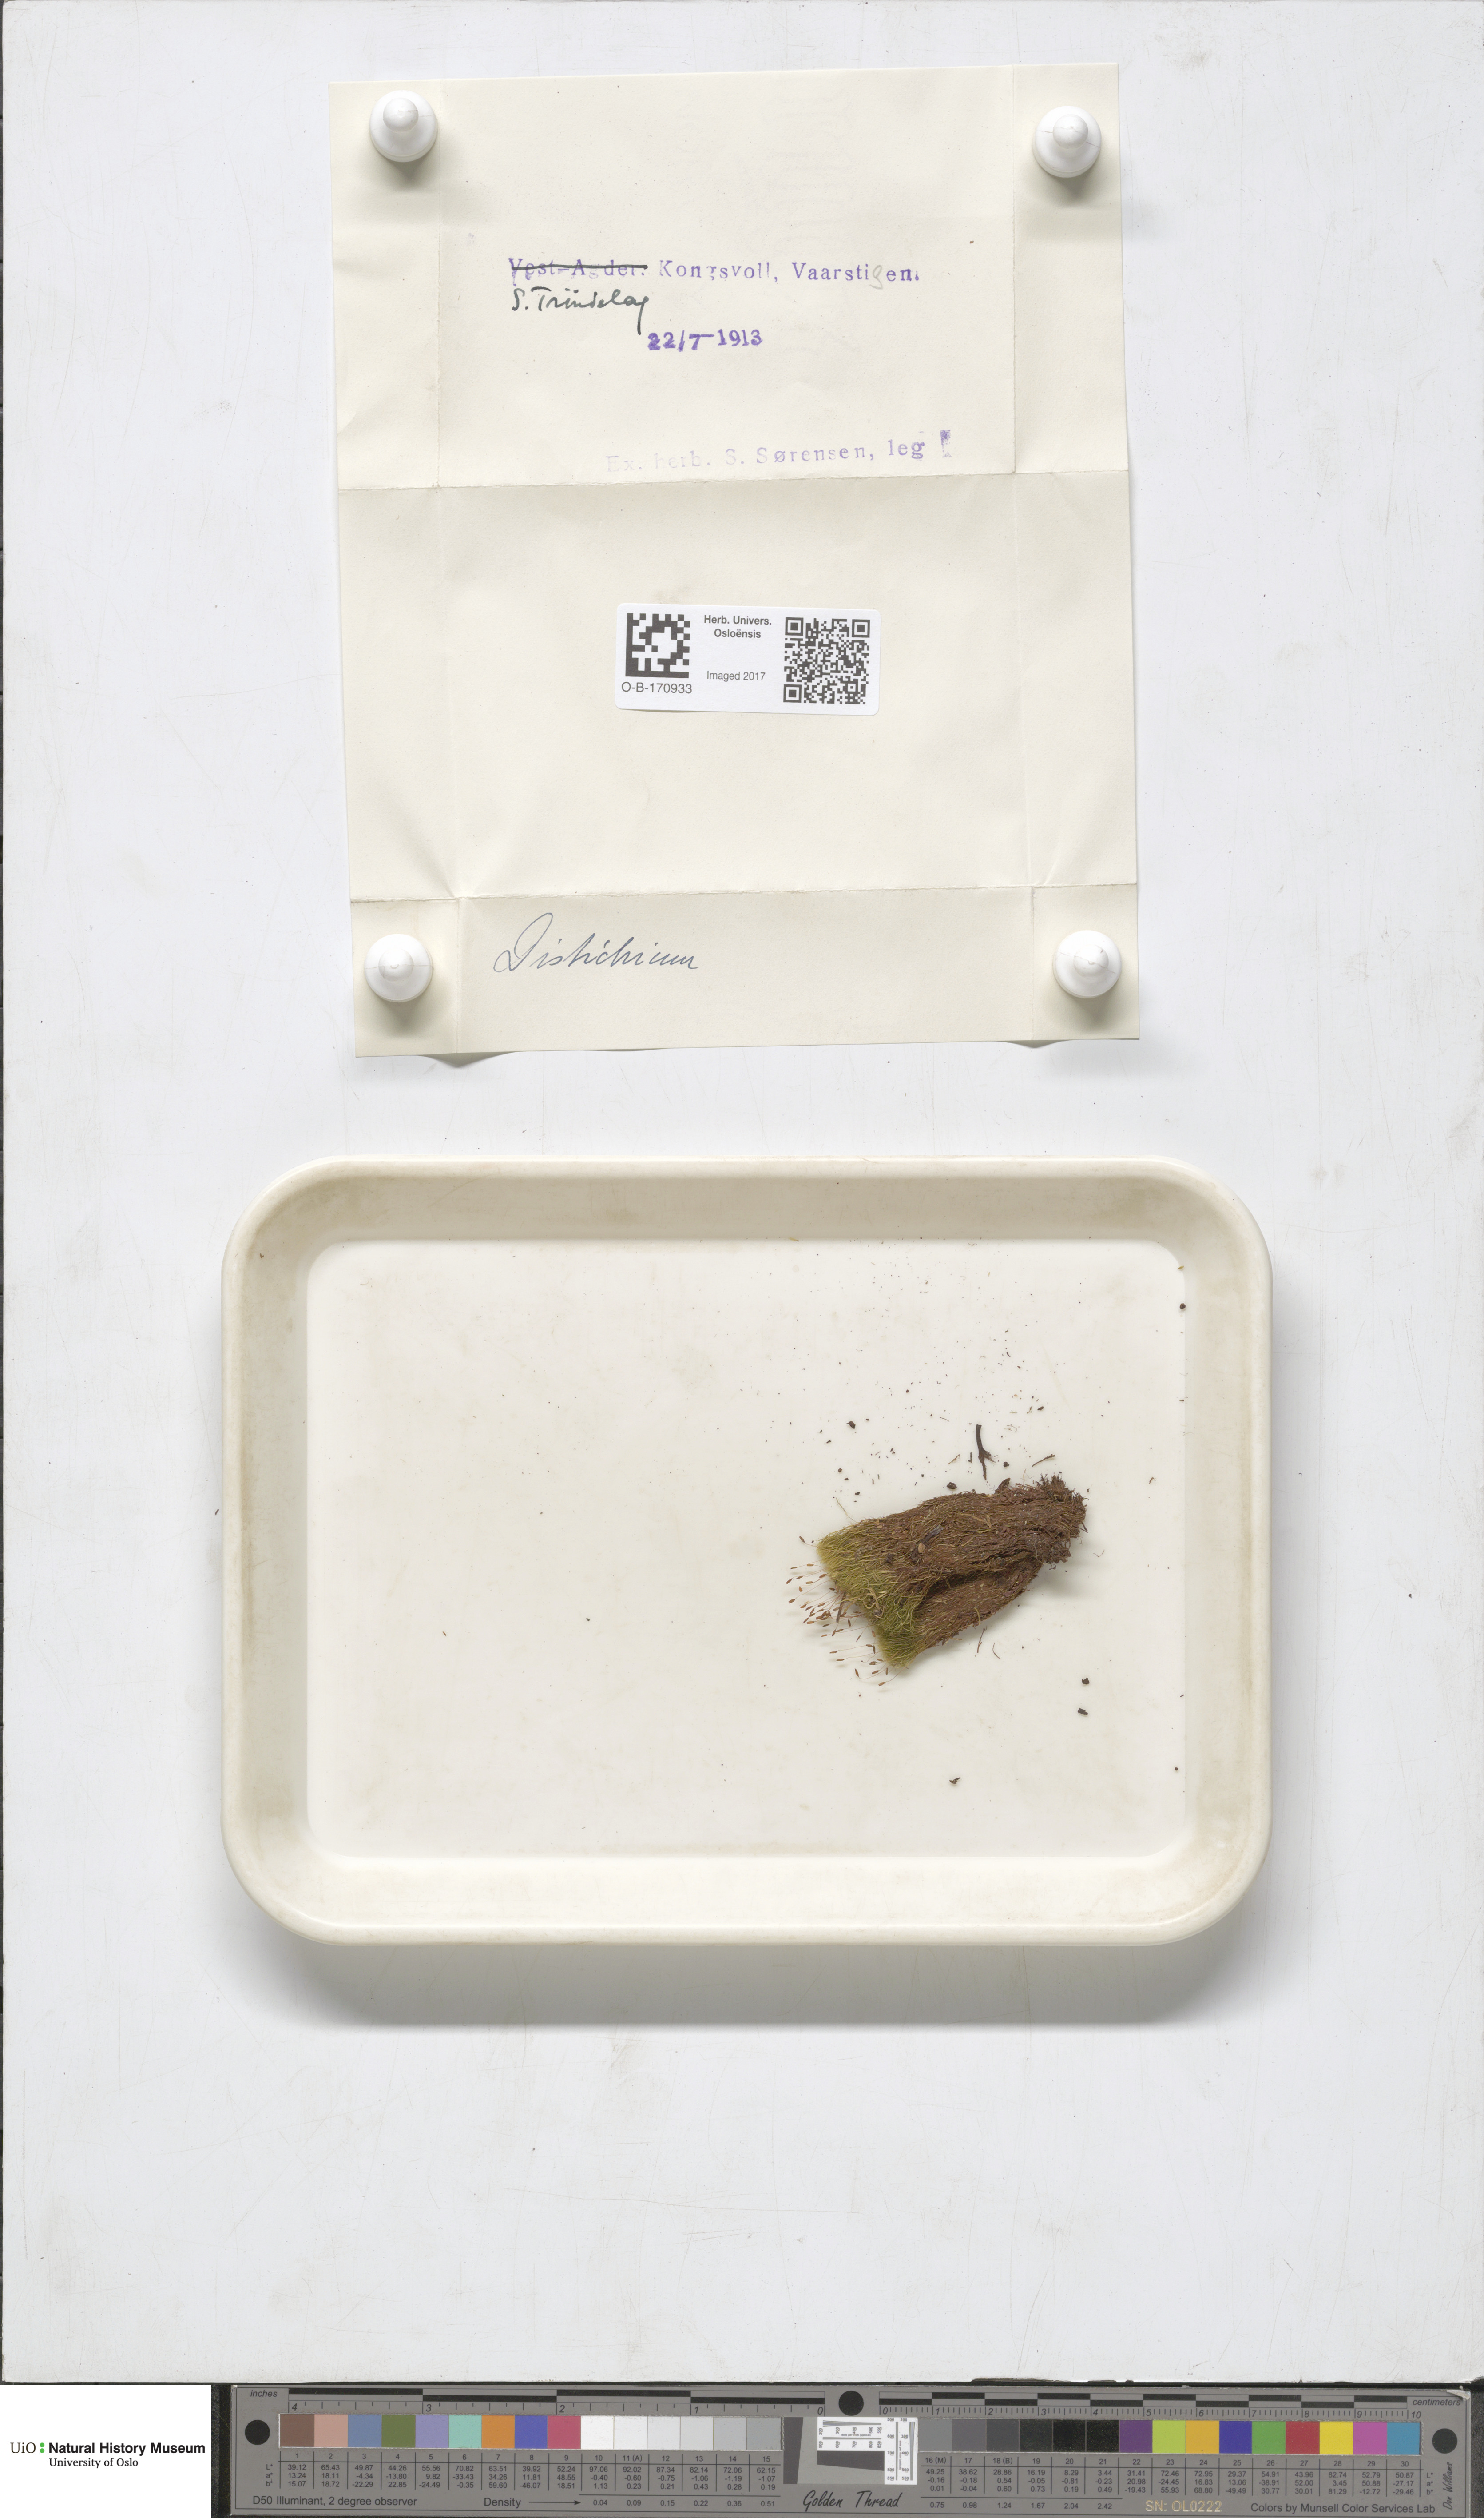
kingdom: Plantae
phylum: Bryophyta
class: Bryopsida
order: Scouleriales
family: Distichiaceae
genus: Distichium
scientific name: Distichium
